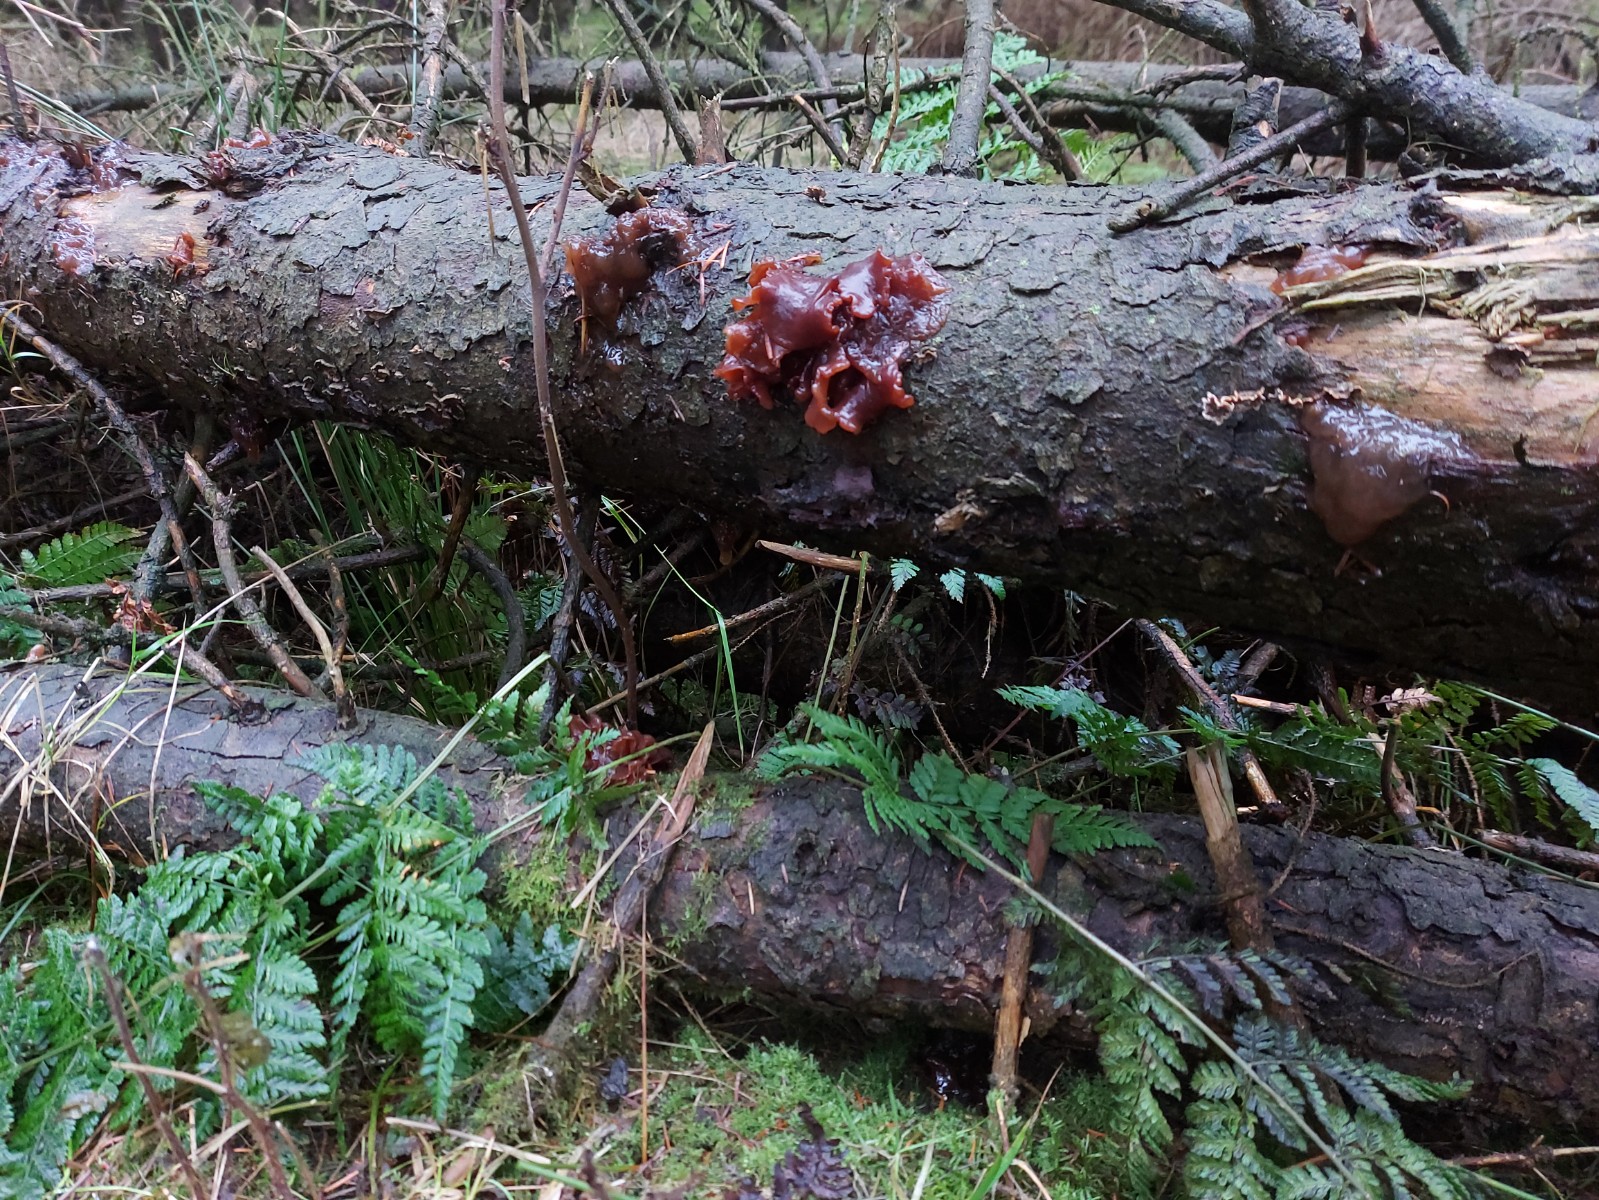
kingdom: Fungi
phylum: Basidiomycota
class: Tremellomycetes
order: Tremellales
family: Tremellaceae
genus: Phaeotremella
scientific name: Phaeotremella foliacea
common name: brun bævresvamp
